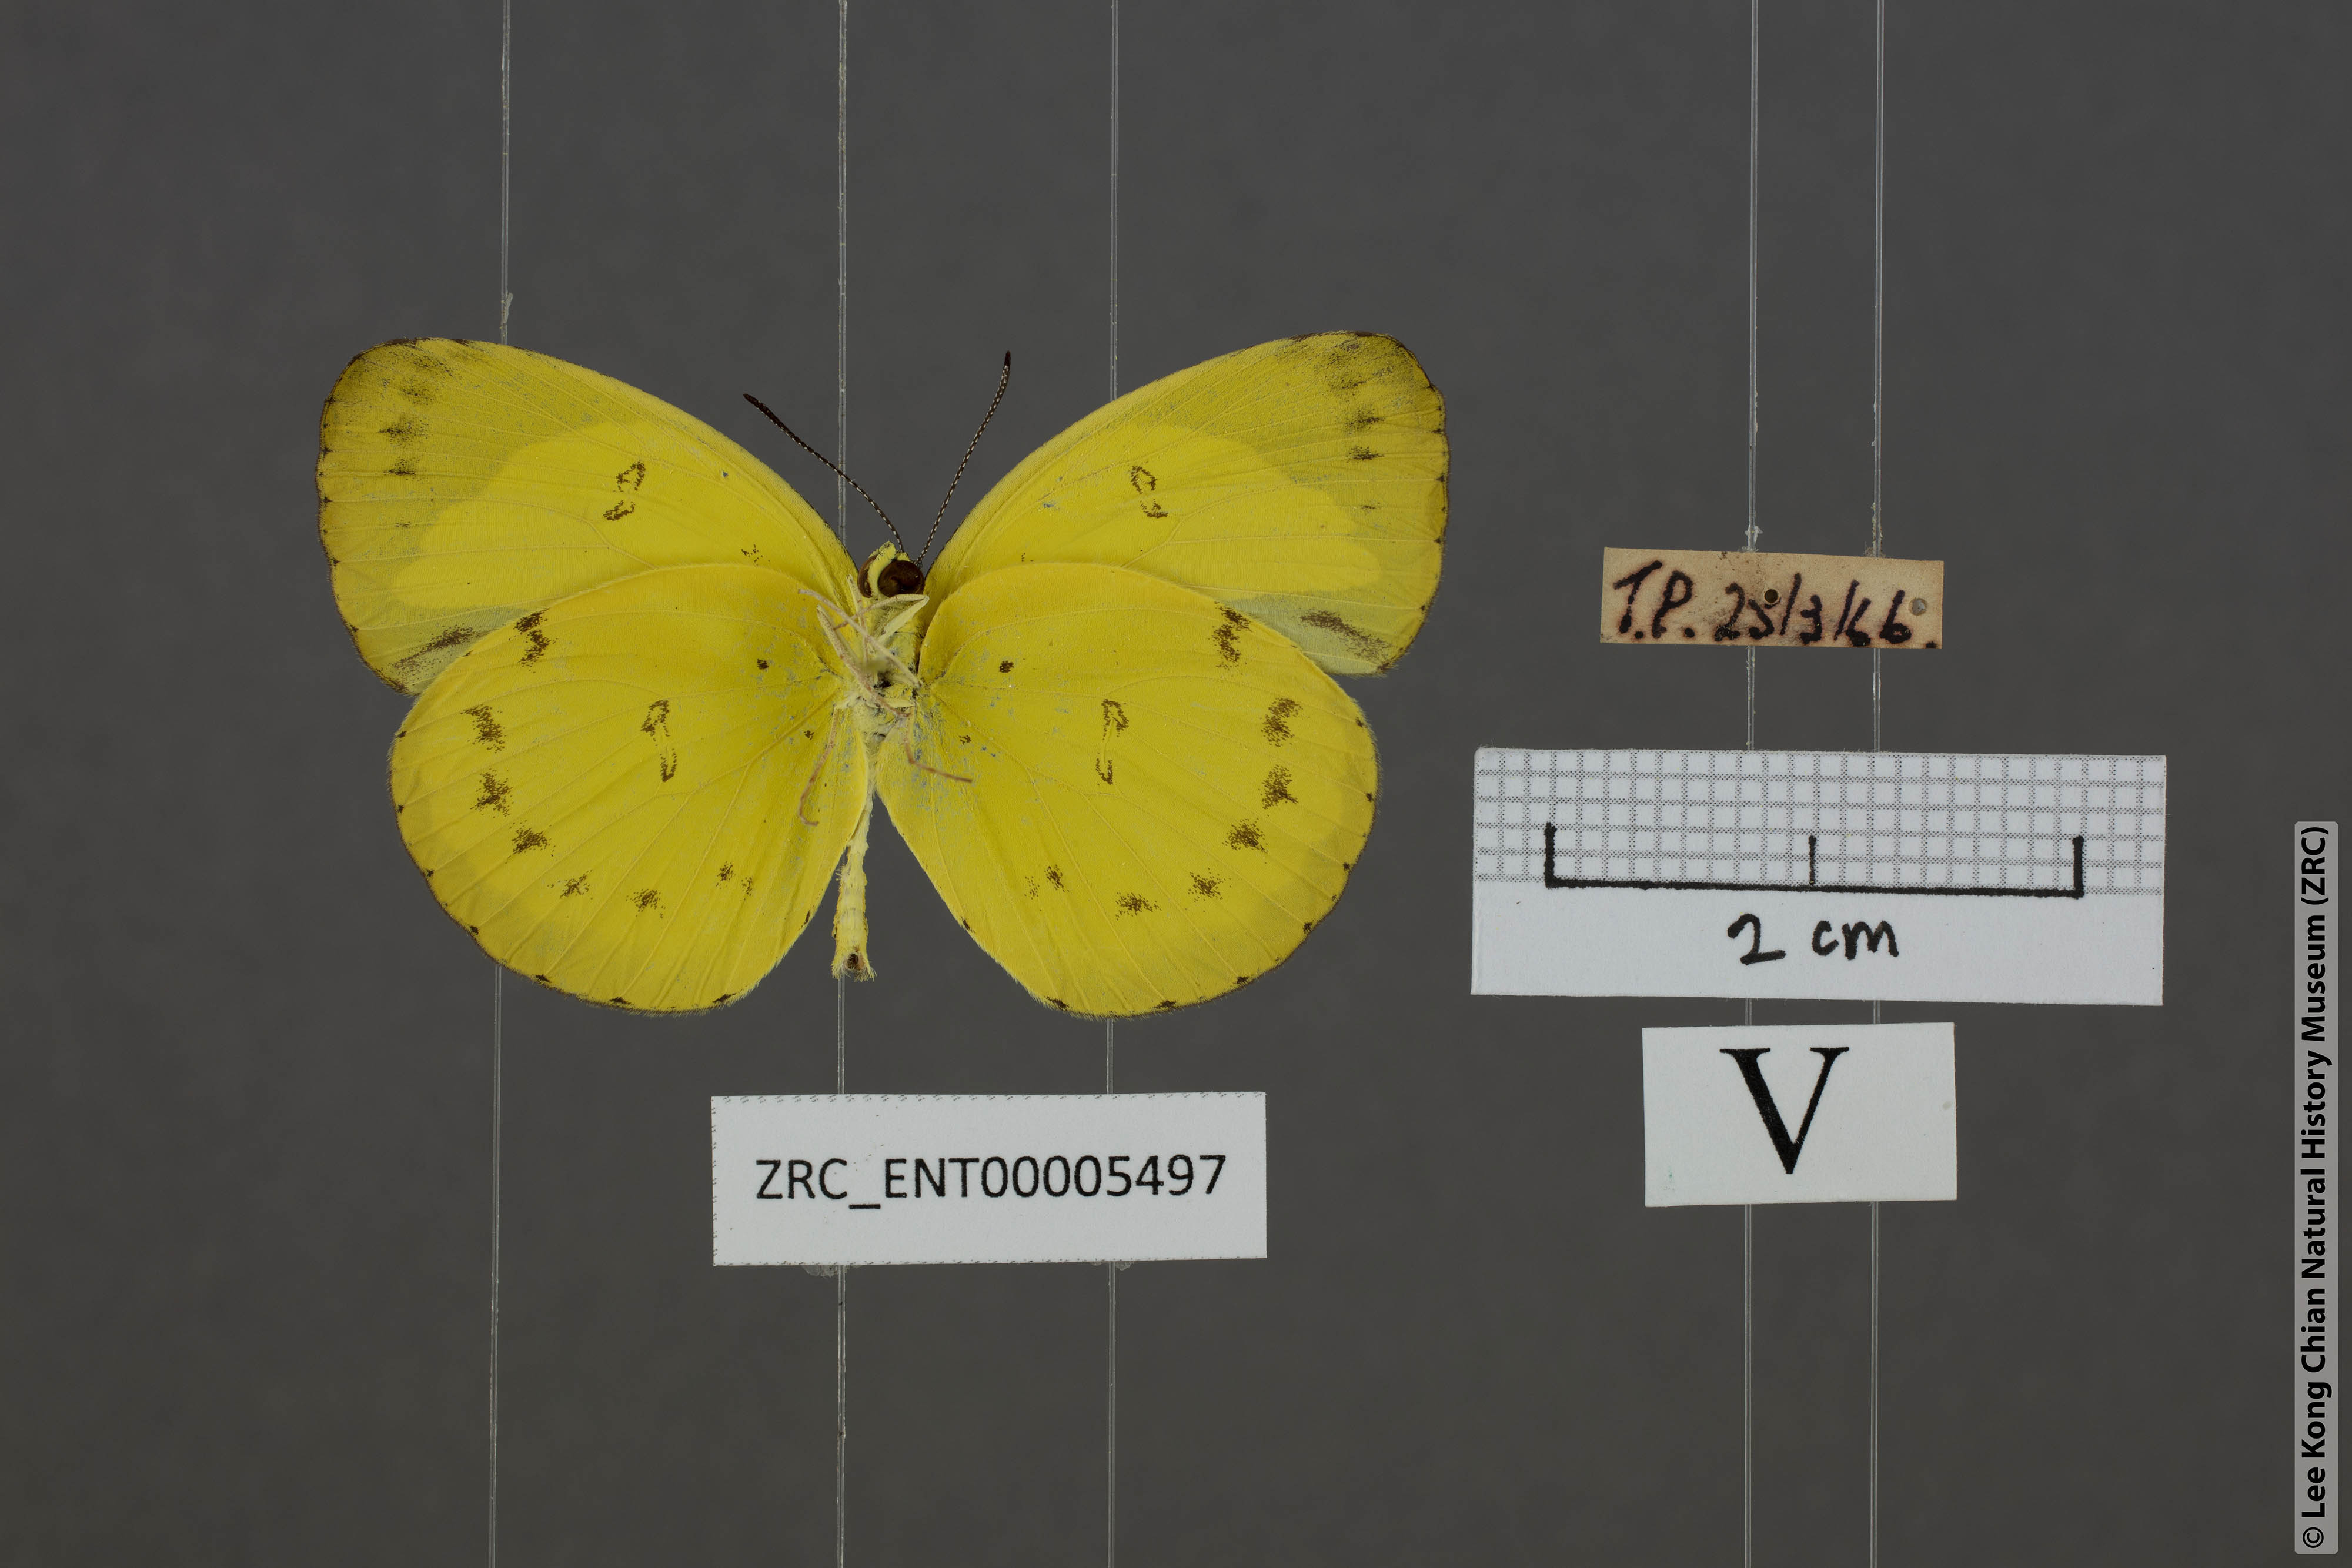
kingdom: Animalia
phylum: Arthropoda
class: Insecta
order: Lepidoptera
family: Pieridae
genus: Eurema
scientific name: Eurema nicevillei
